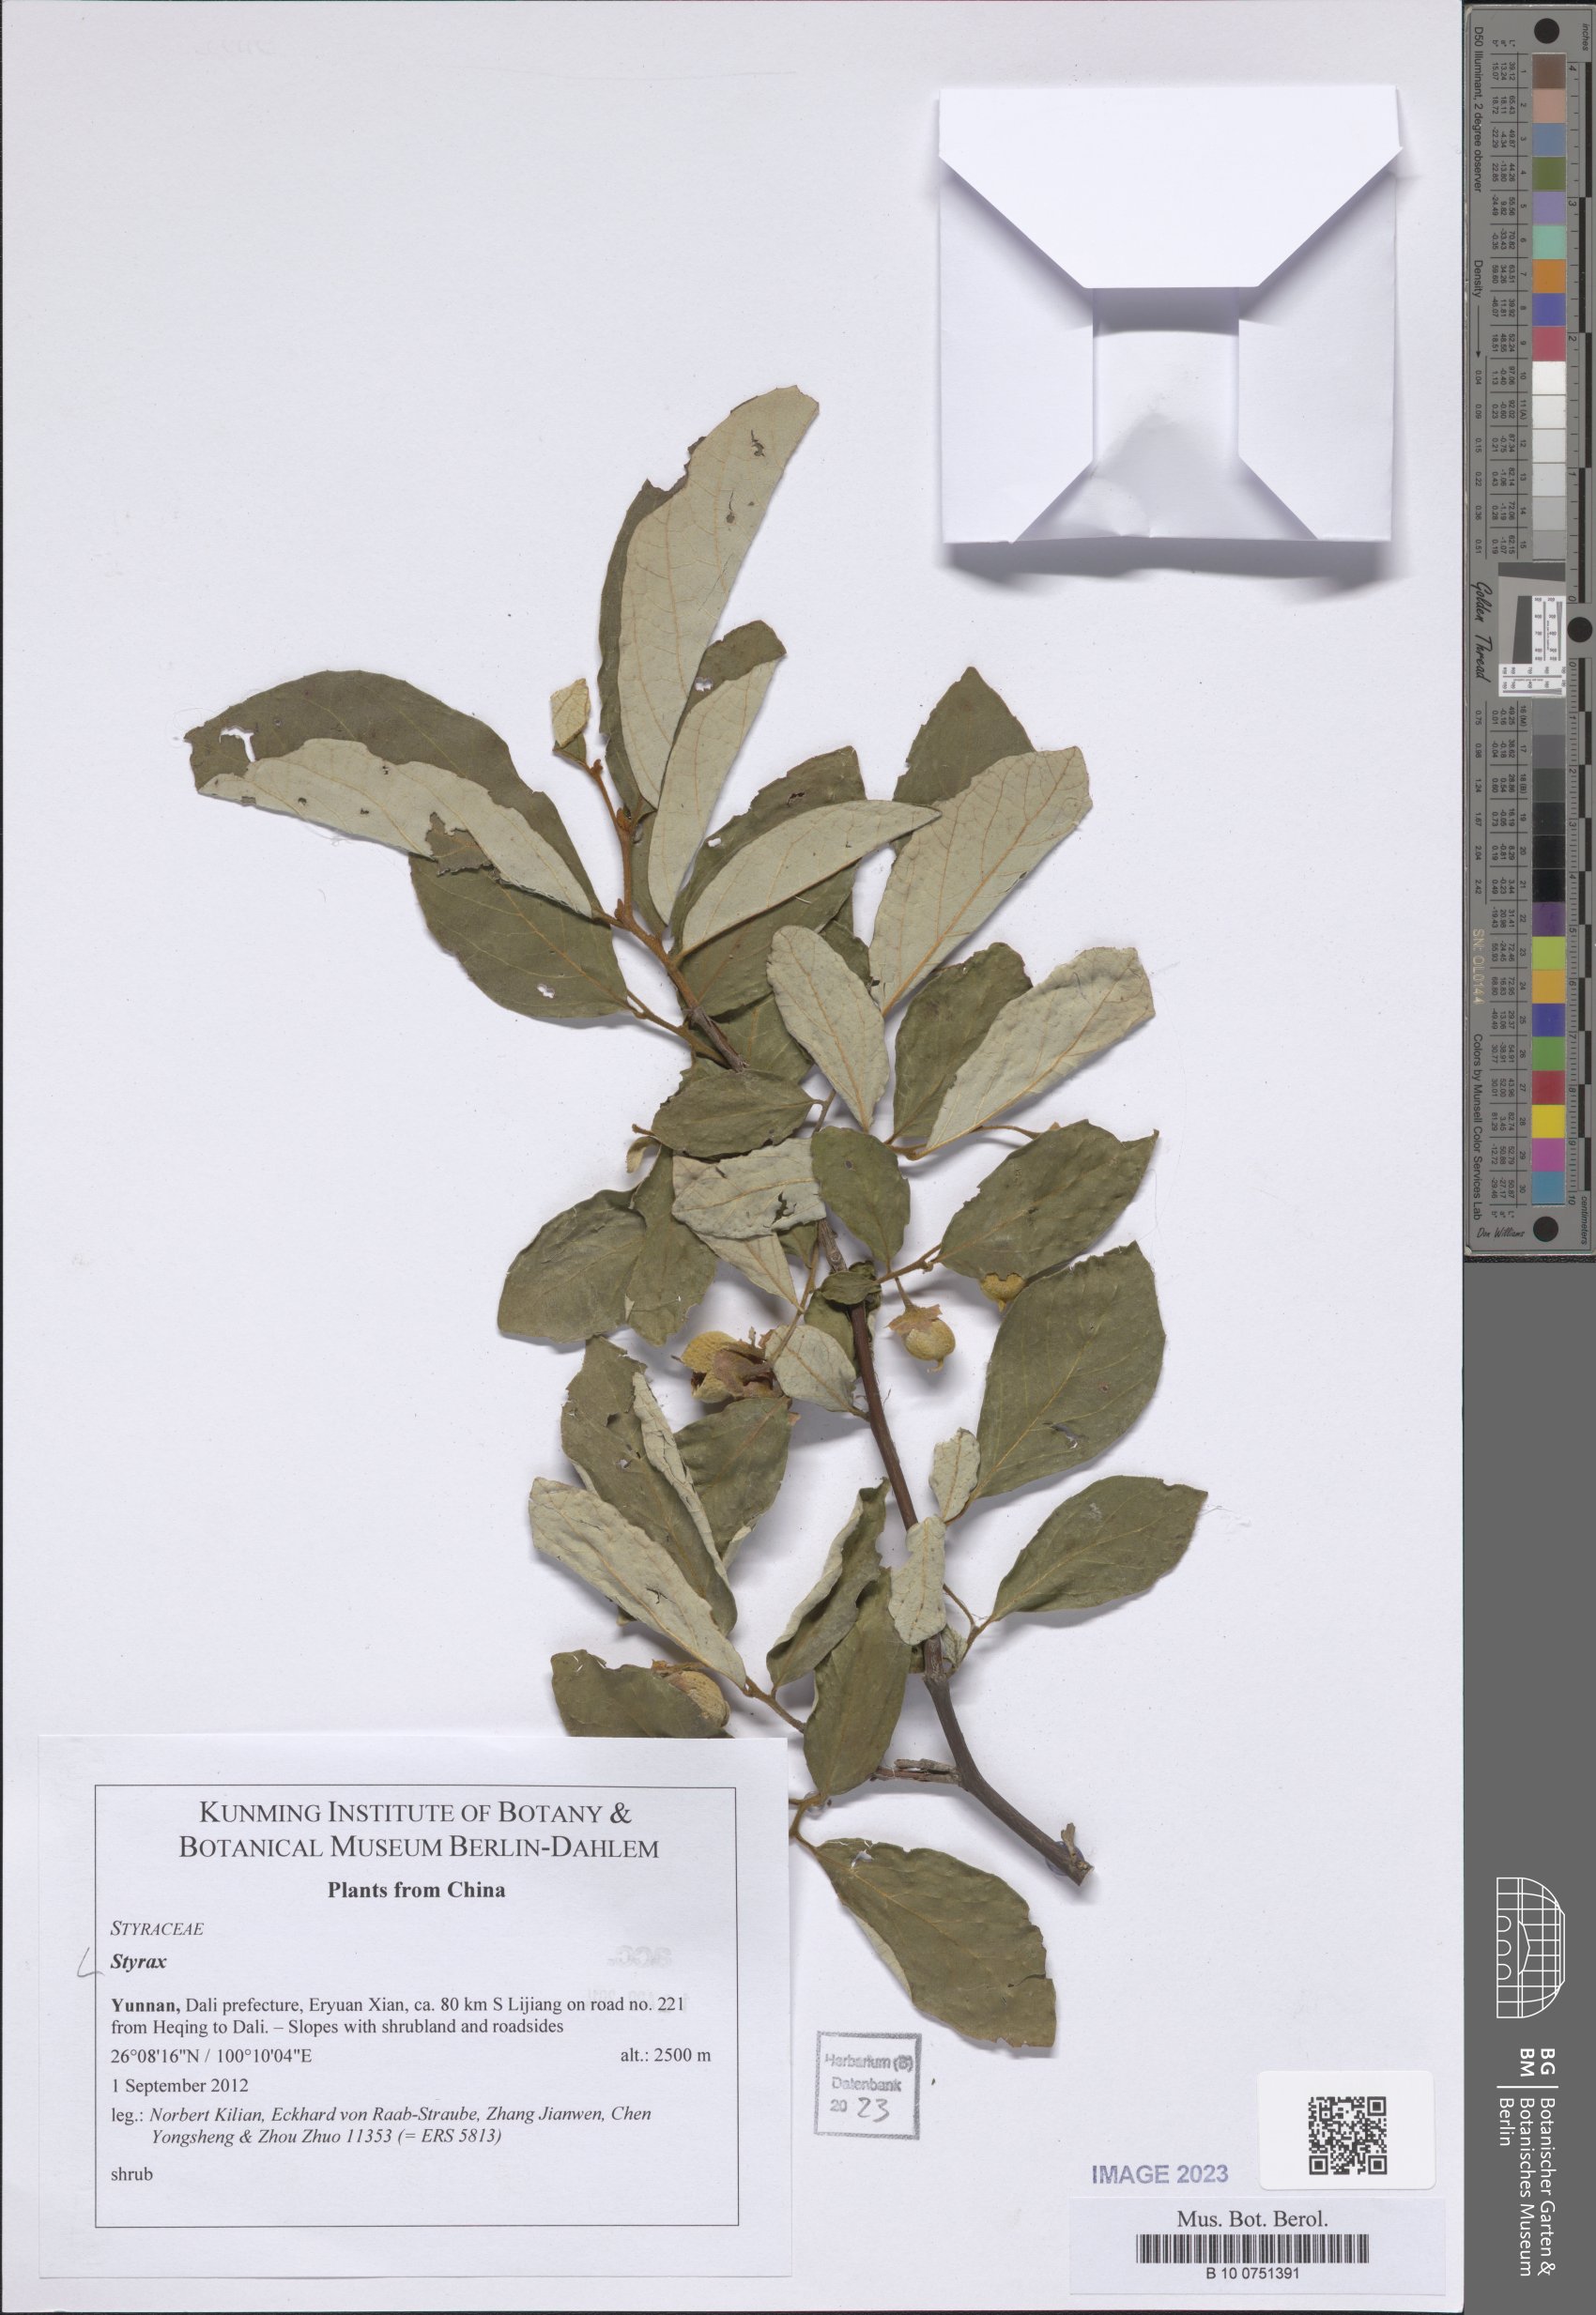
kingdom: Plantae
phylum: Tracheophyta
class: Magnoliopsida
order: Ericales
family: Styracaceae
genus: Styrax
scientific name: Styrax
